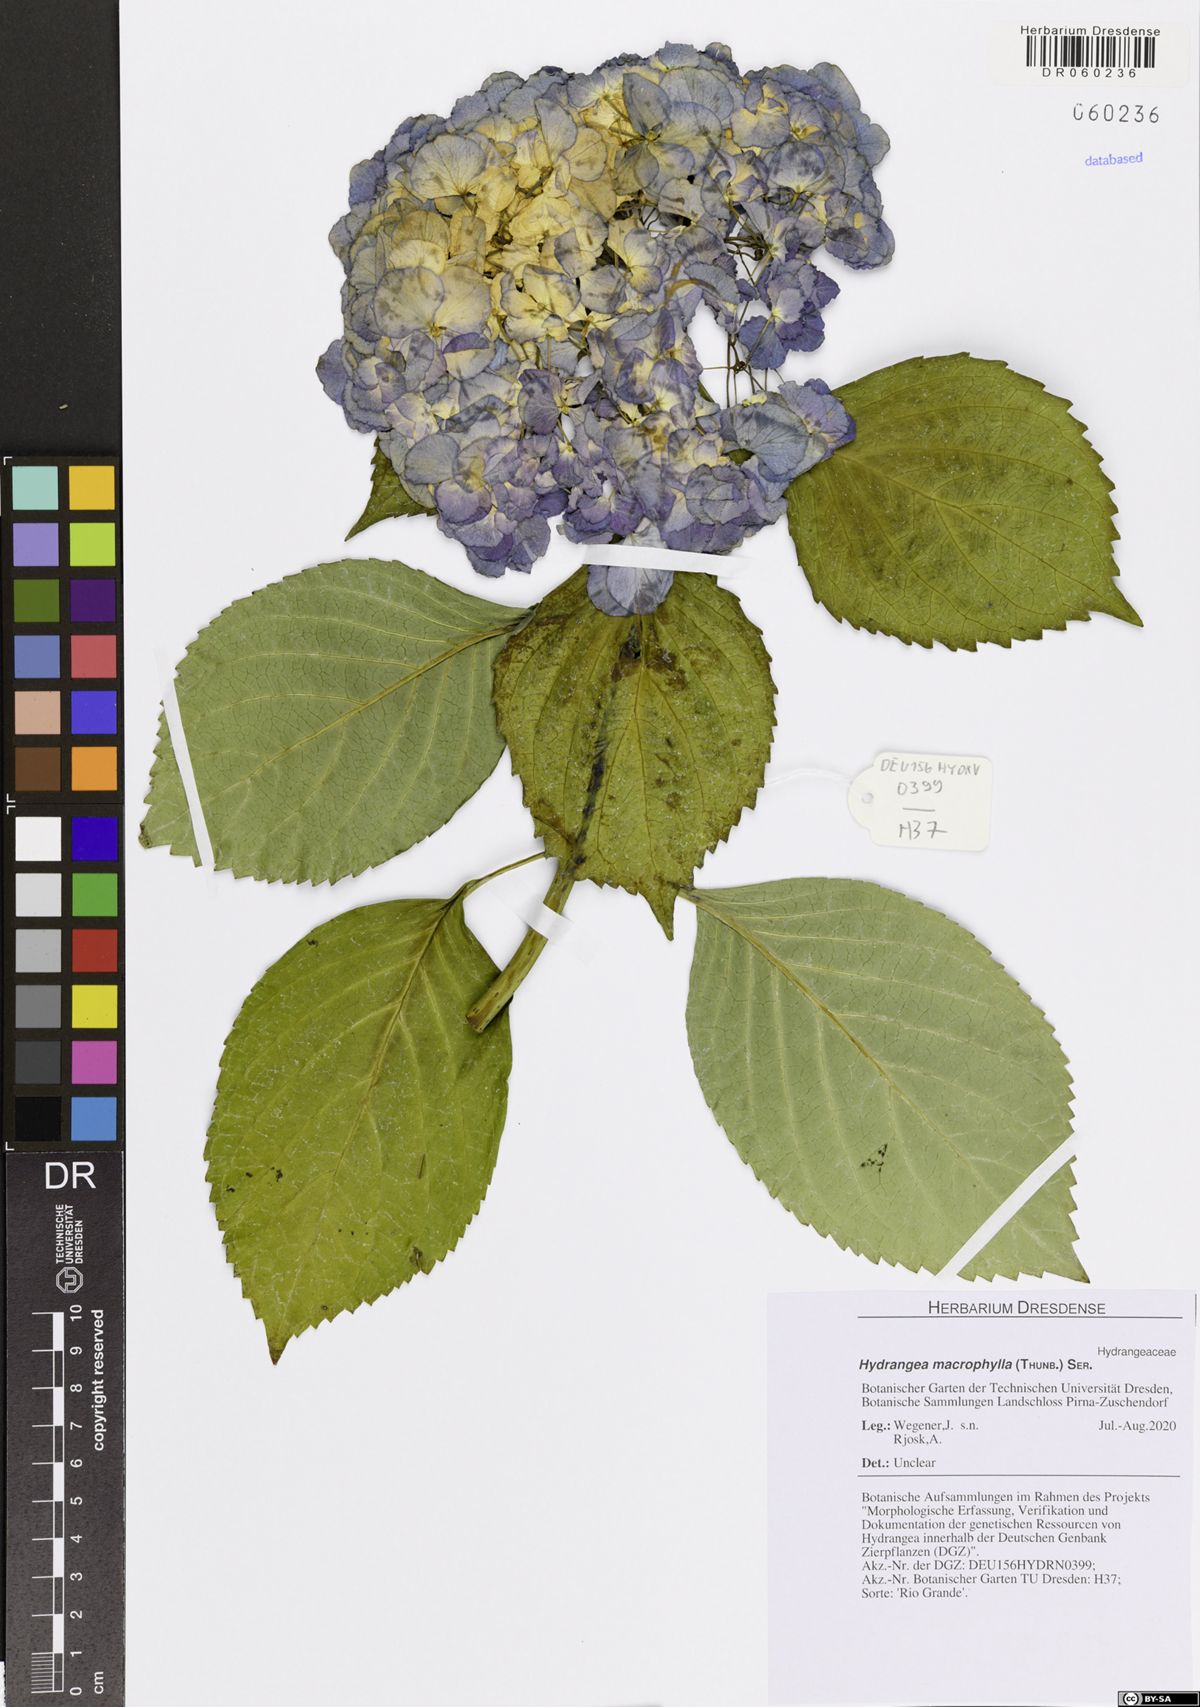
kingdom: Plantae
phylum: Tracheophyta
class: Magnoliopsida
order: Cornales
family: Hydrangeaceae
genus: Hydrangea
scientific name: Hydrangea macrophylla
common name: Hydrangea
